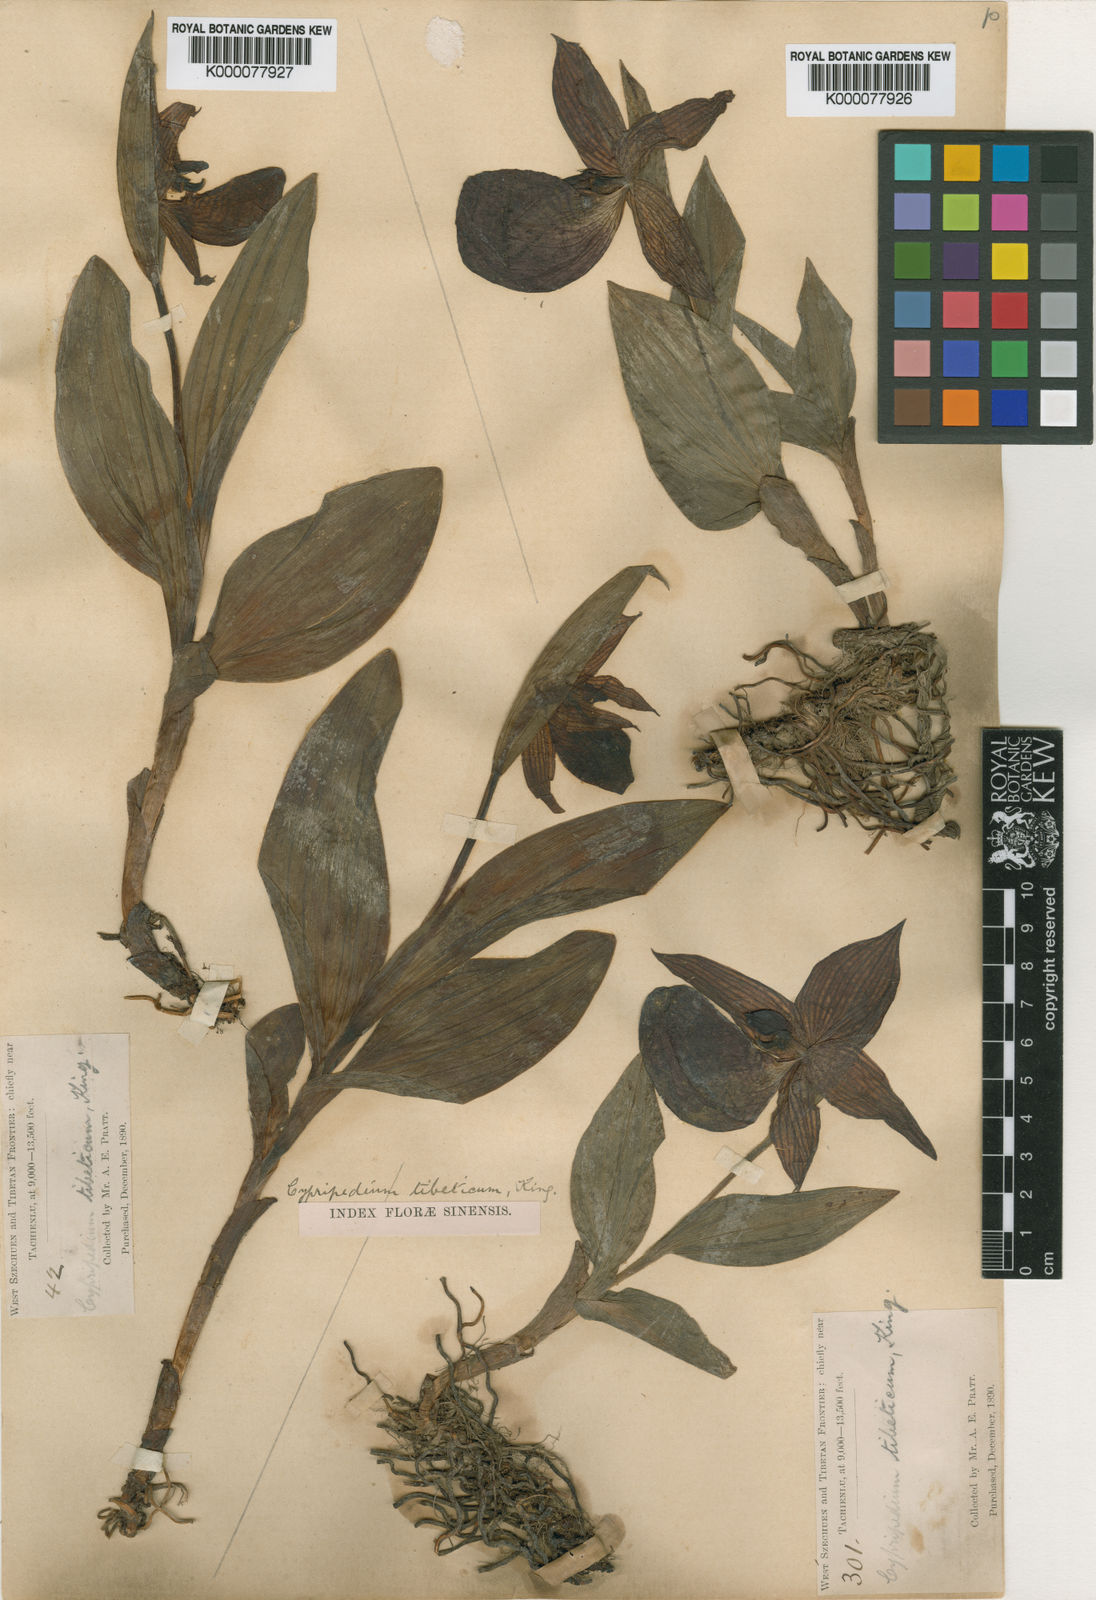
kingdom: Plantae
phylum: Tracheophyta
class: Liliopsida
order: Asparagales
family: Orchidaceae
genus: Cypripedium
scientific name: Cypripedium tibeticum
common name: Tibetan cypripedium
